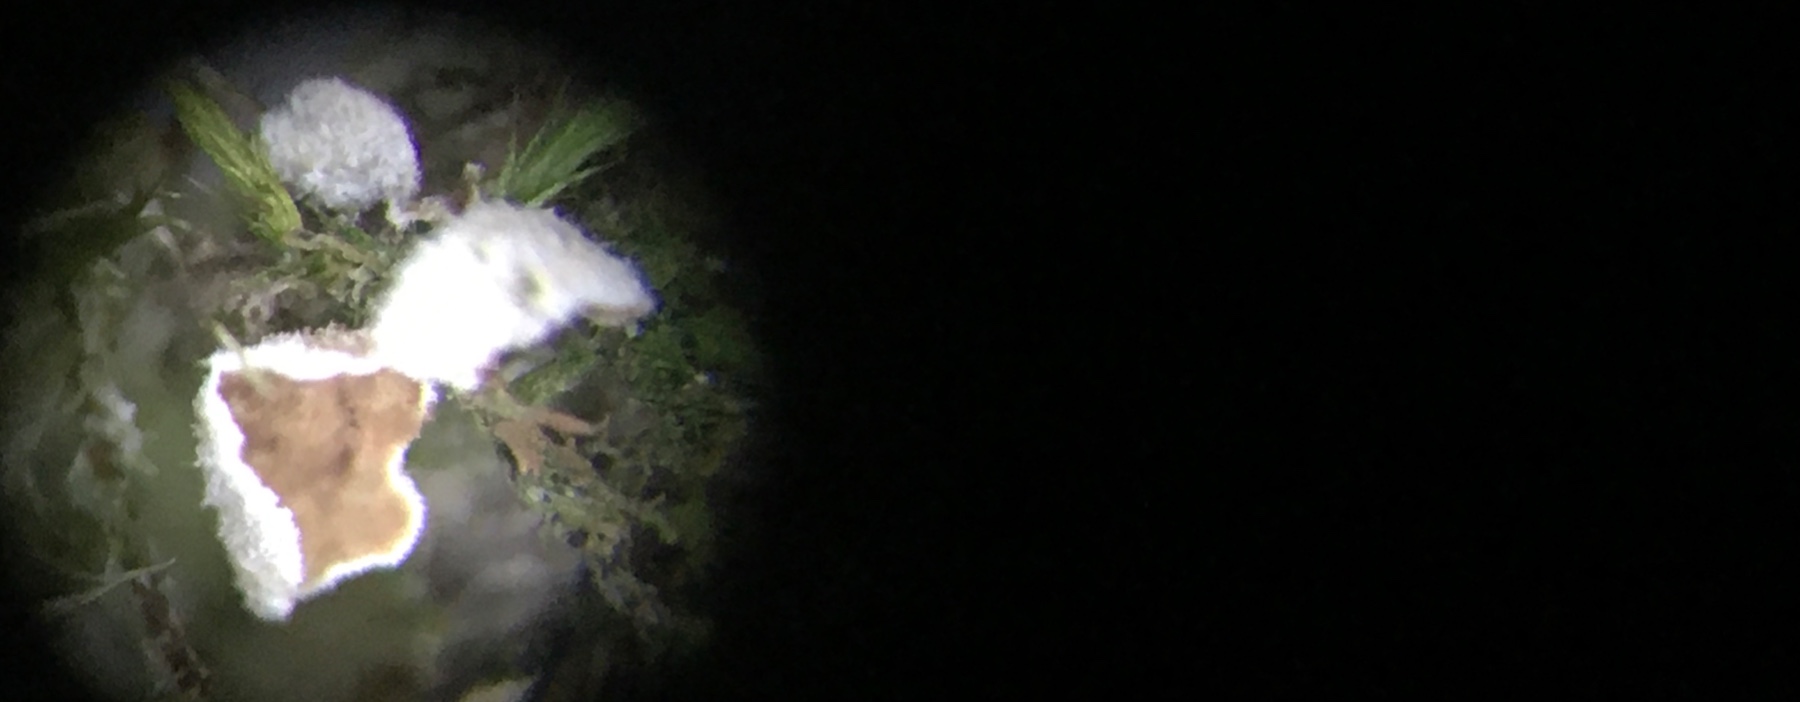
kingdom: Fungi
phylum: Basidiomycota
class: Agaricomycetes
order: Agaricales
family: Chromocyphellaceae
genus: Chromocyphella
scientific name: Chromocyphella muscicola
